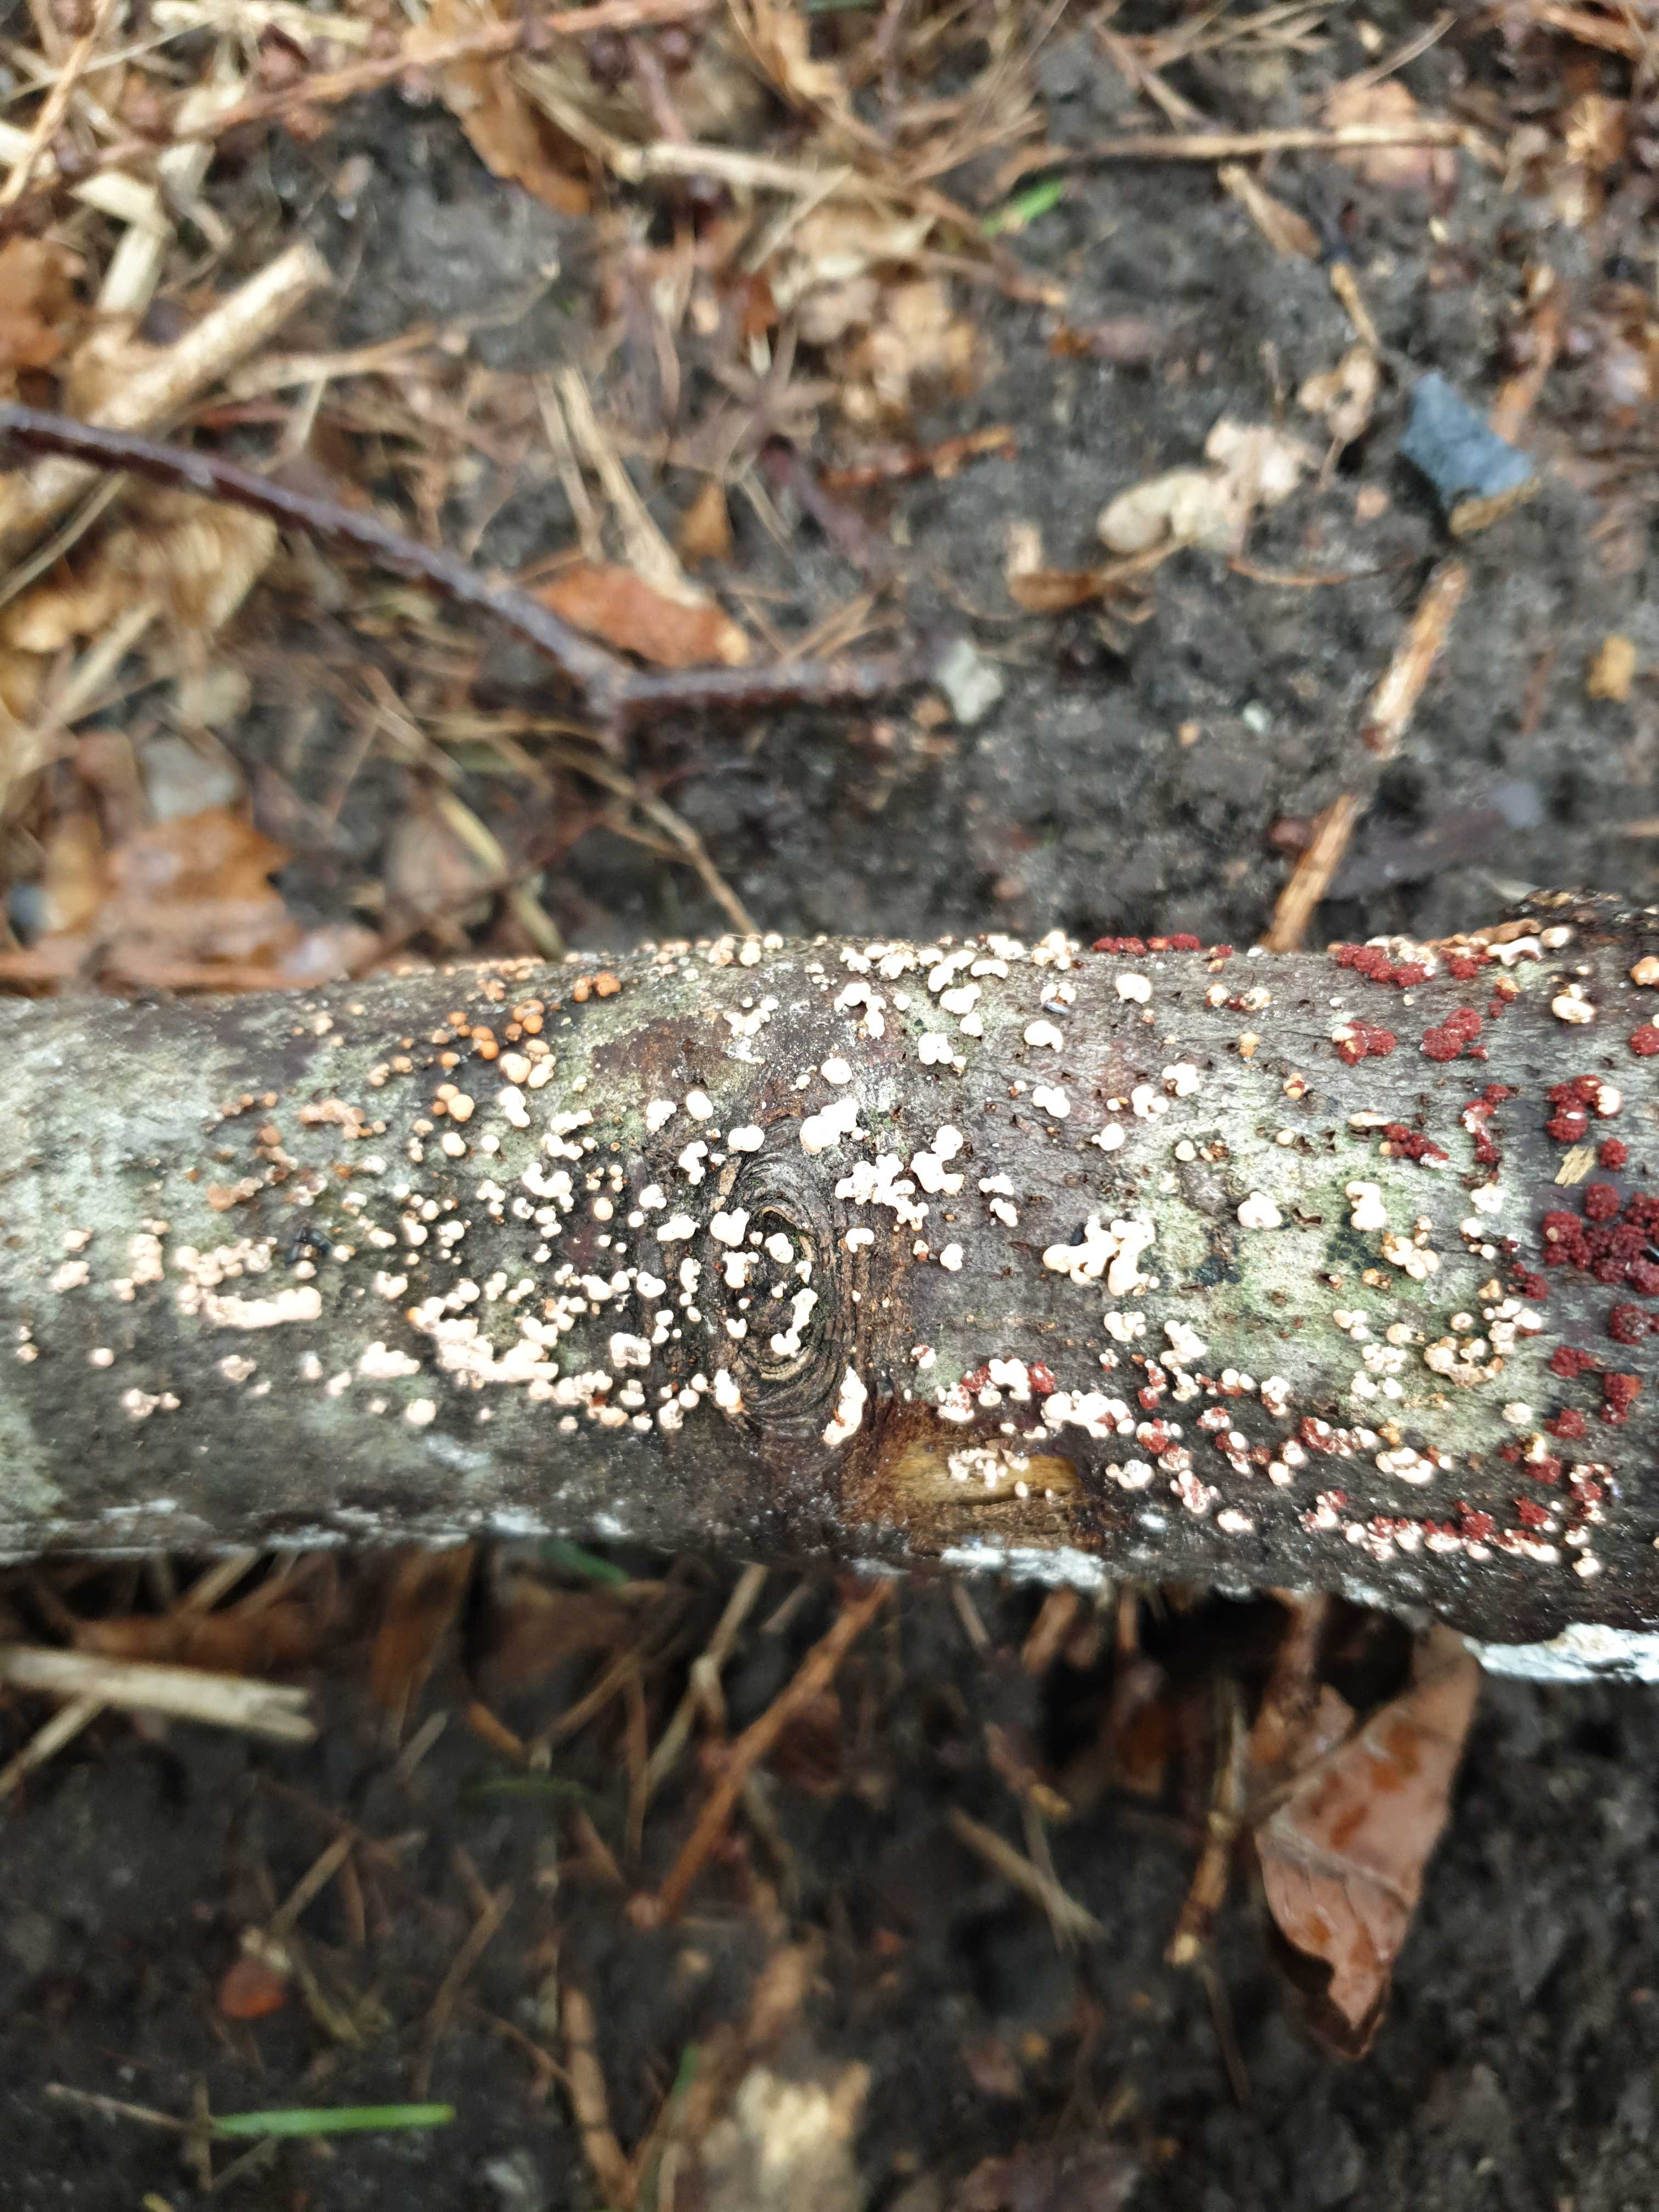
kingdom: Fungi
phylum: Ascomycota
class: Sordariomycetes
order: Hypocreales
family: Nectriaceae
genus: Nectria
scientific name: Nectria cinnabarina
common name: almindelig cinnobersvamp
